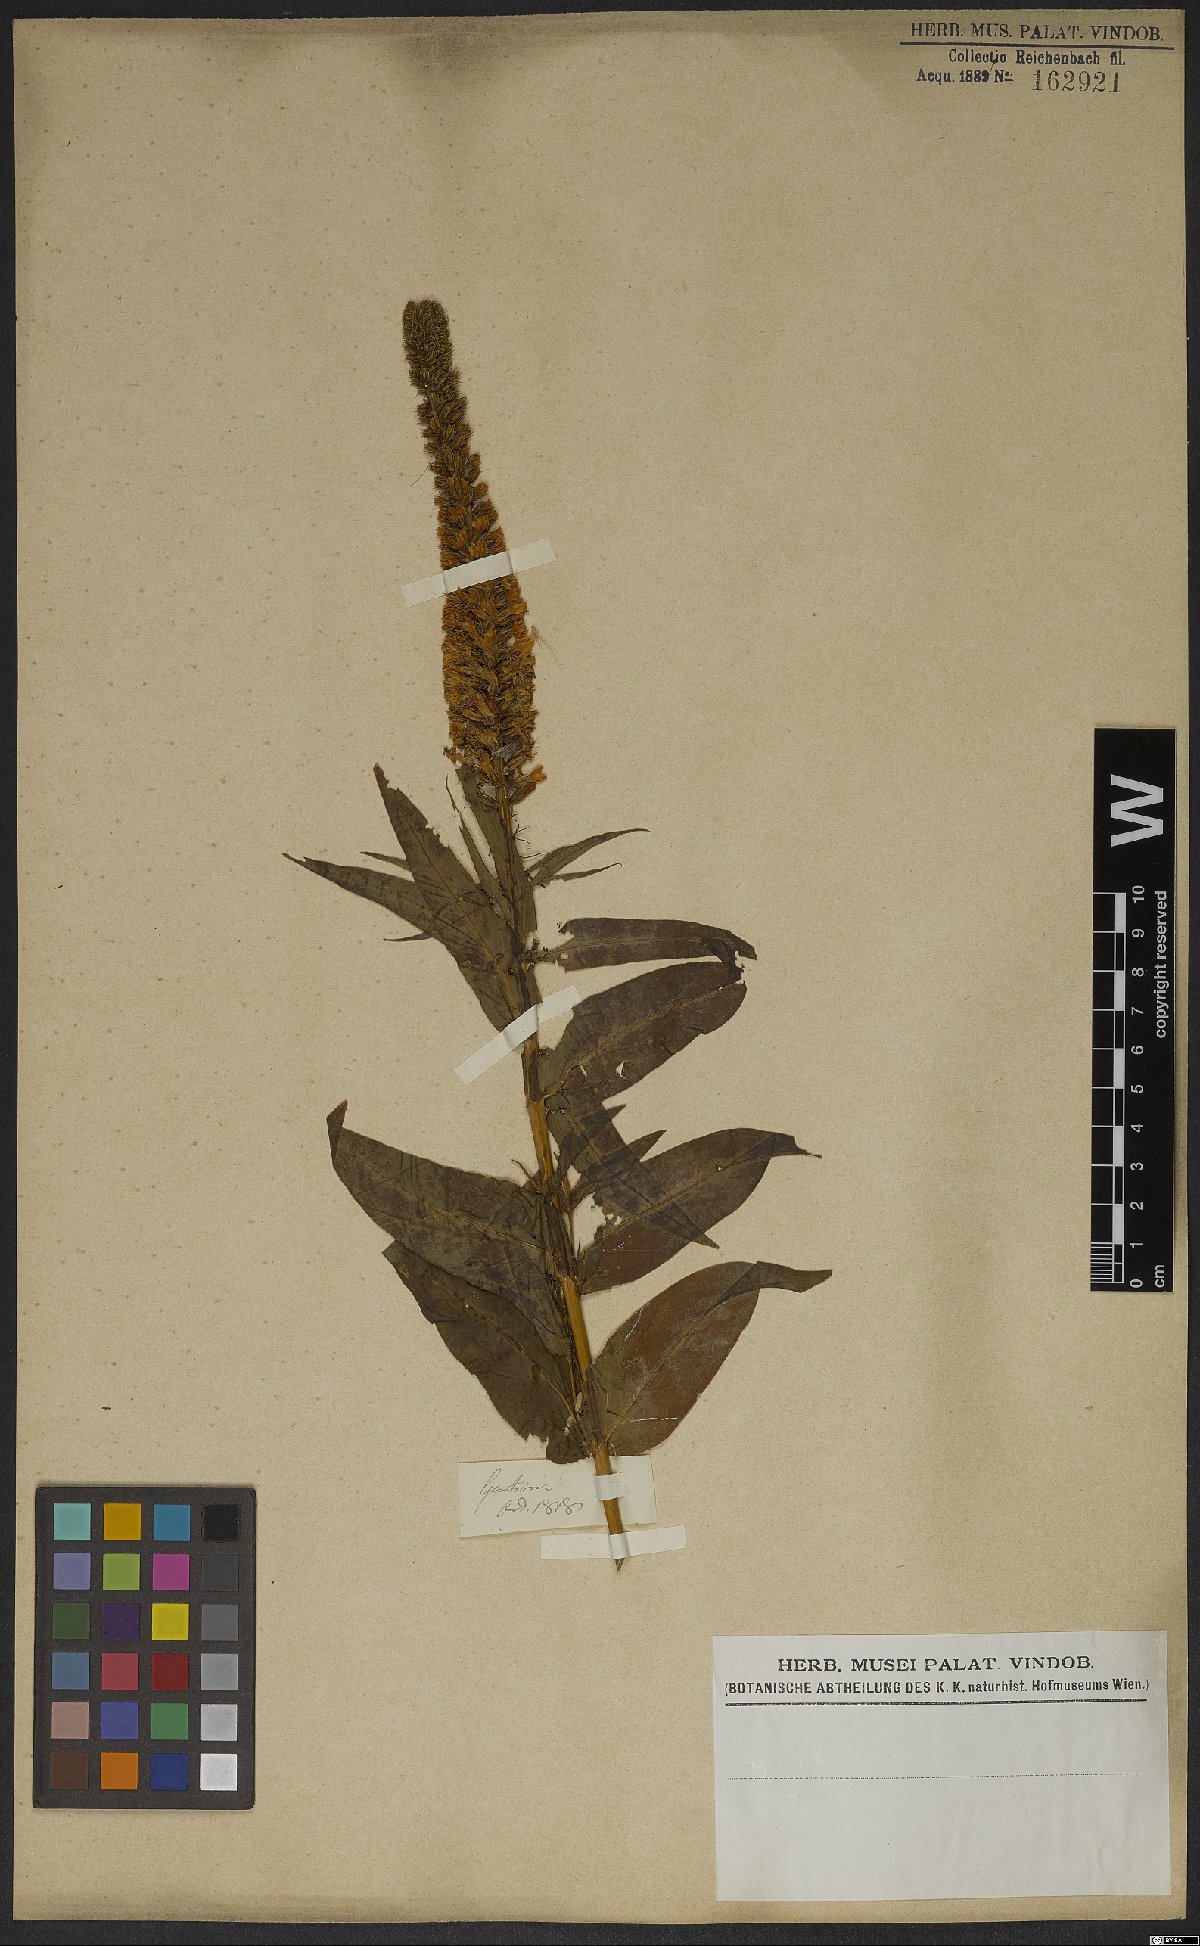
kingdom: Plantae
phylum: Tracheophyta
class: Magnoliopsida
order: Gentianales
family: Gentianaceae
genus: Coutoubea
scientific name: Coutoubea spicata
